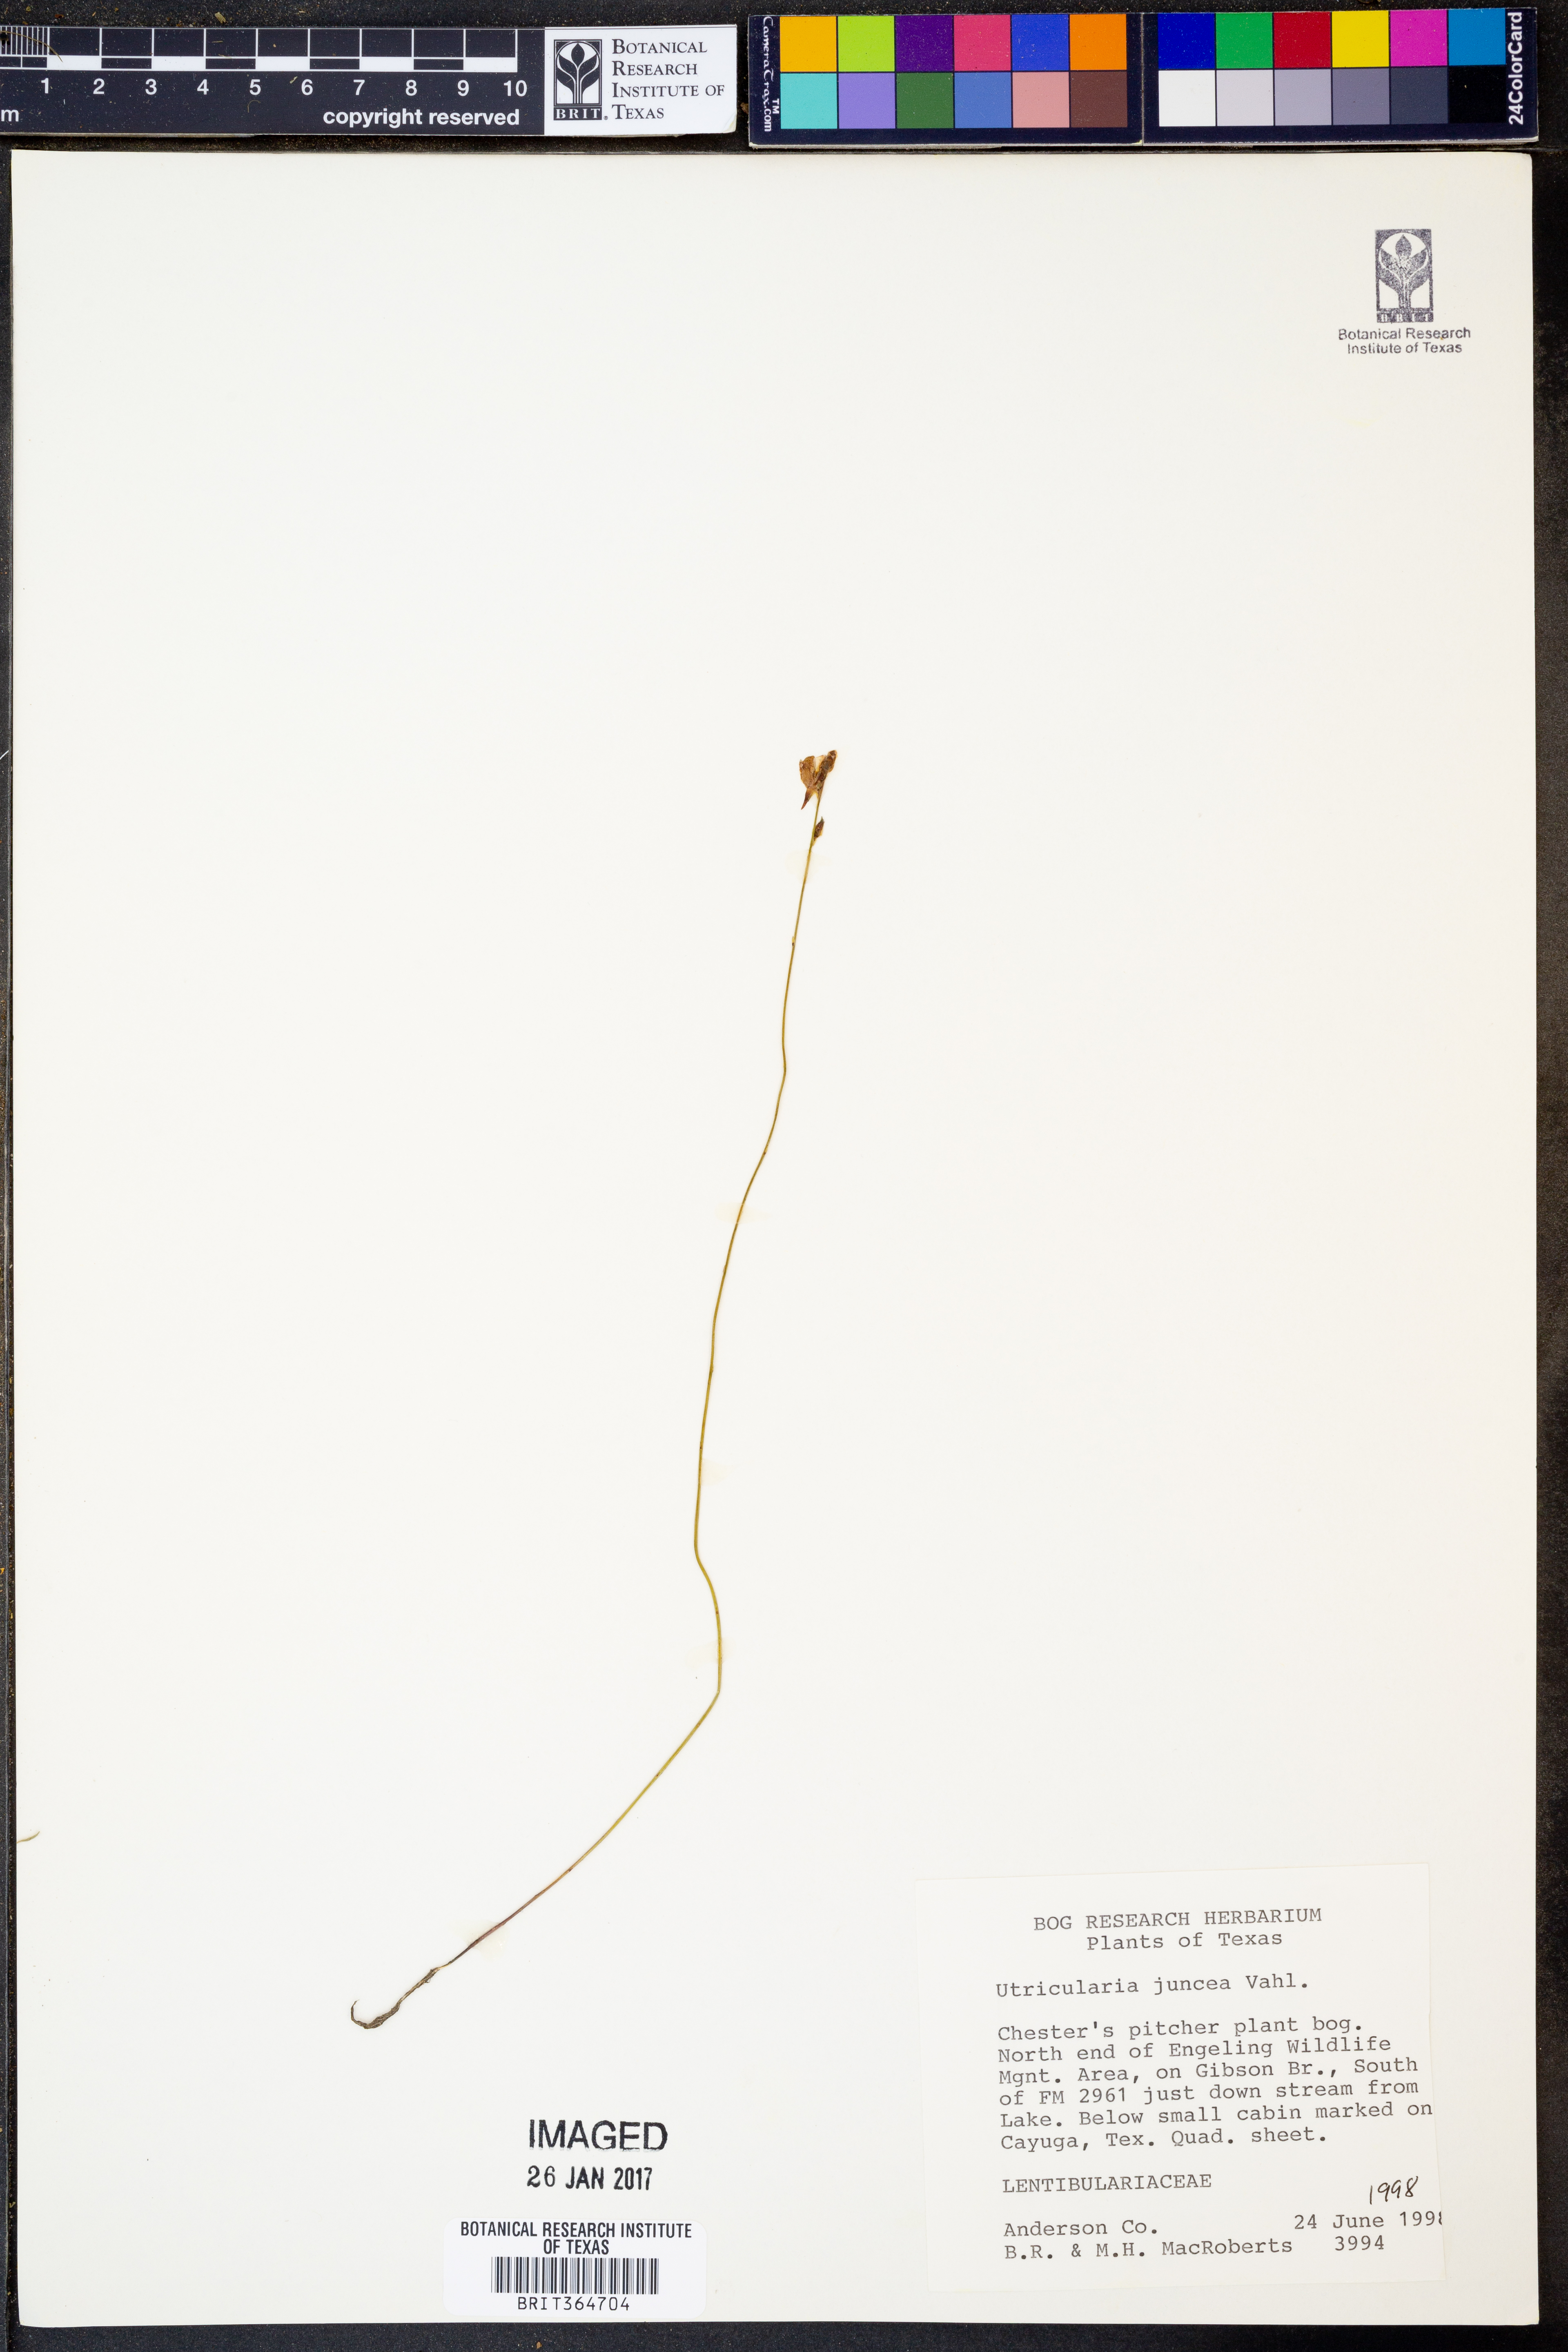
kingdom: Plantae
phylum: Tracheophyta
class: Magnoliopsida
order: Lamiales
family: Lentibulariaceae
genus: Utricularia
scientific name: Utricularia juncea
